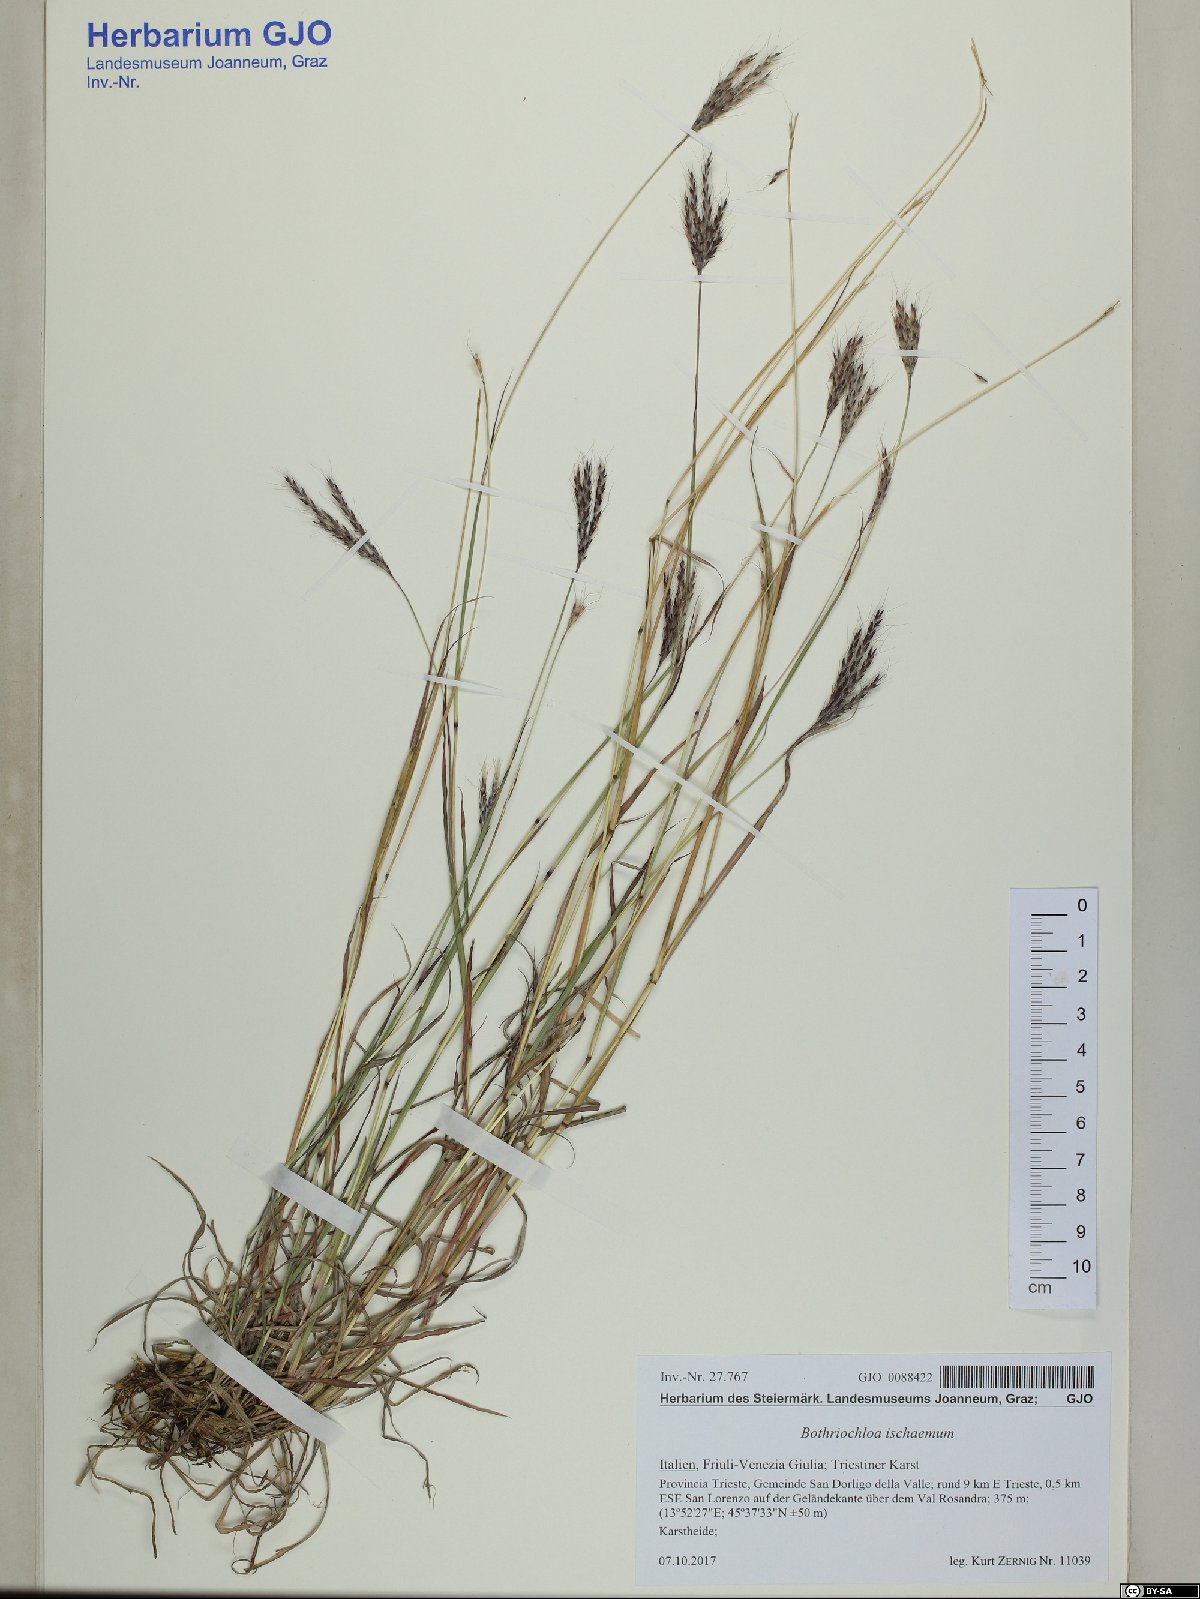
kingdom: Plantae
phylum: Tracheophyta
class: Liliopsida
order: Poales
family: Poaceae
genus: Bothriochloa
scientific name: Bothriochloa ischaemum
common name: Yellow bluestem
